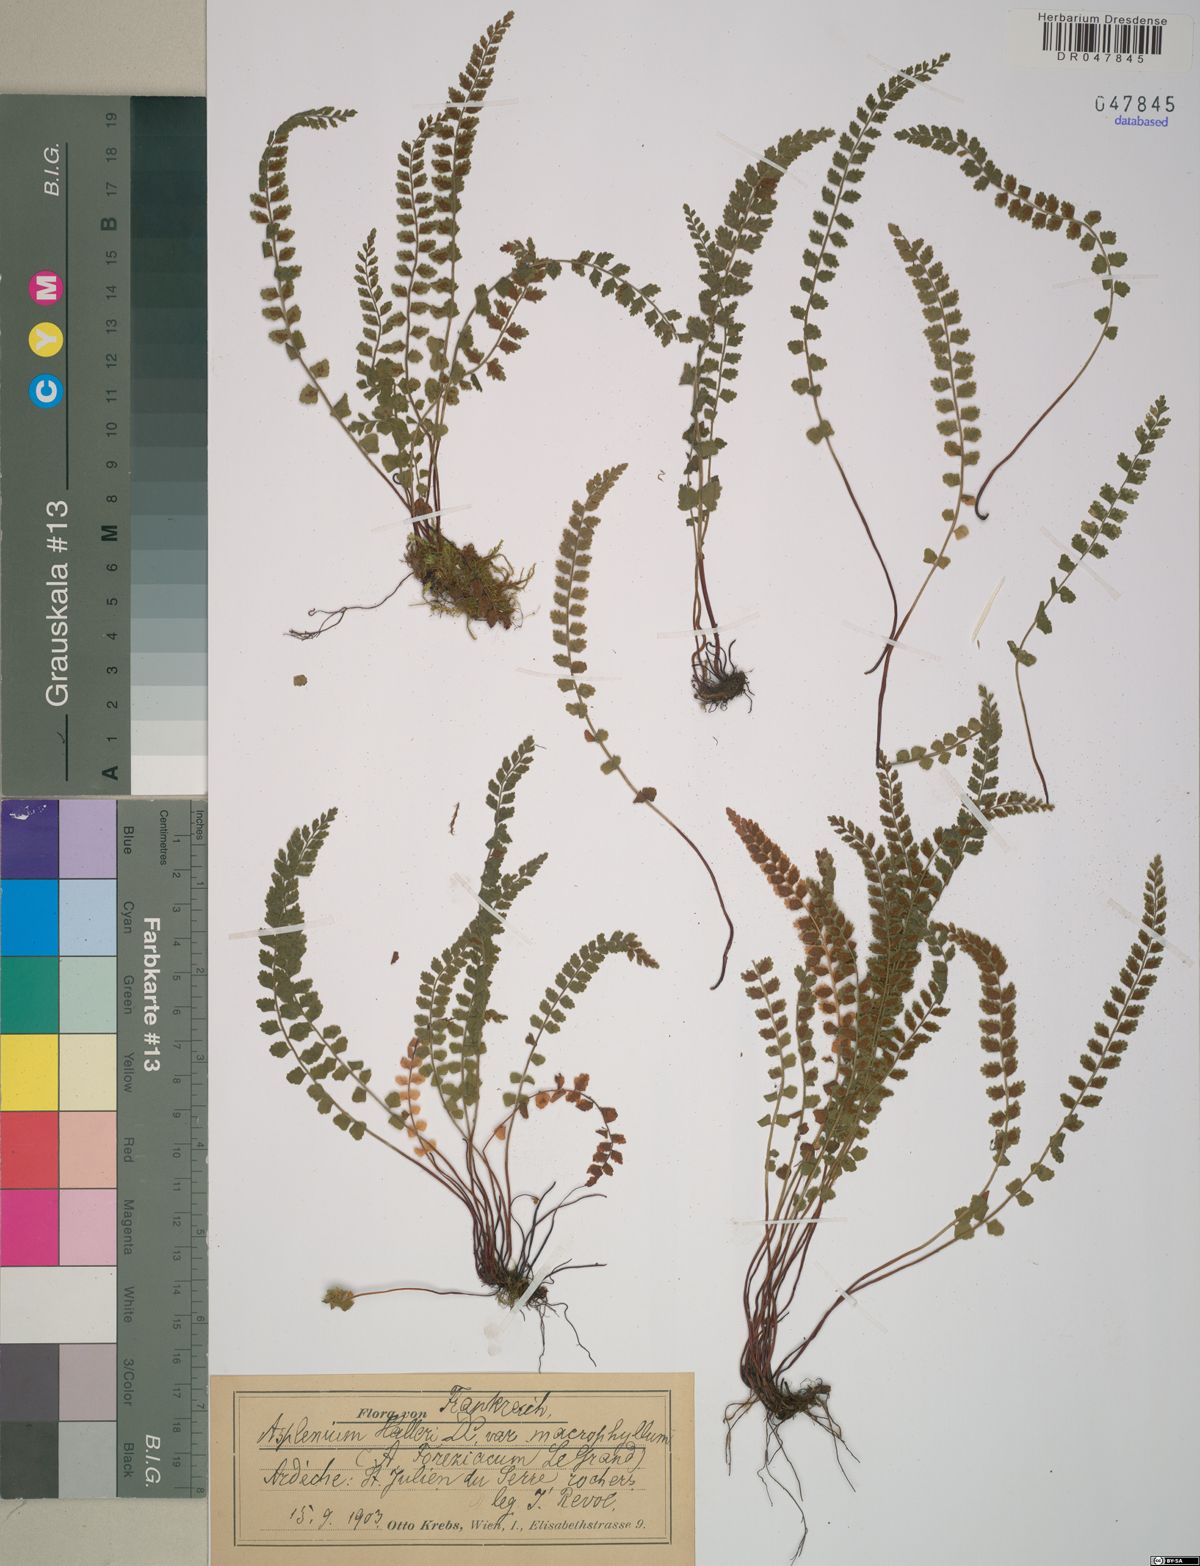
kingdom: Plantae
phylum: Tracheophyta
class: Polypodiopsida
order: Polypodiales
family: Aspleniaceae
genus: Asplenium
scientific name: Asplenium foreziense
